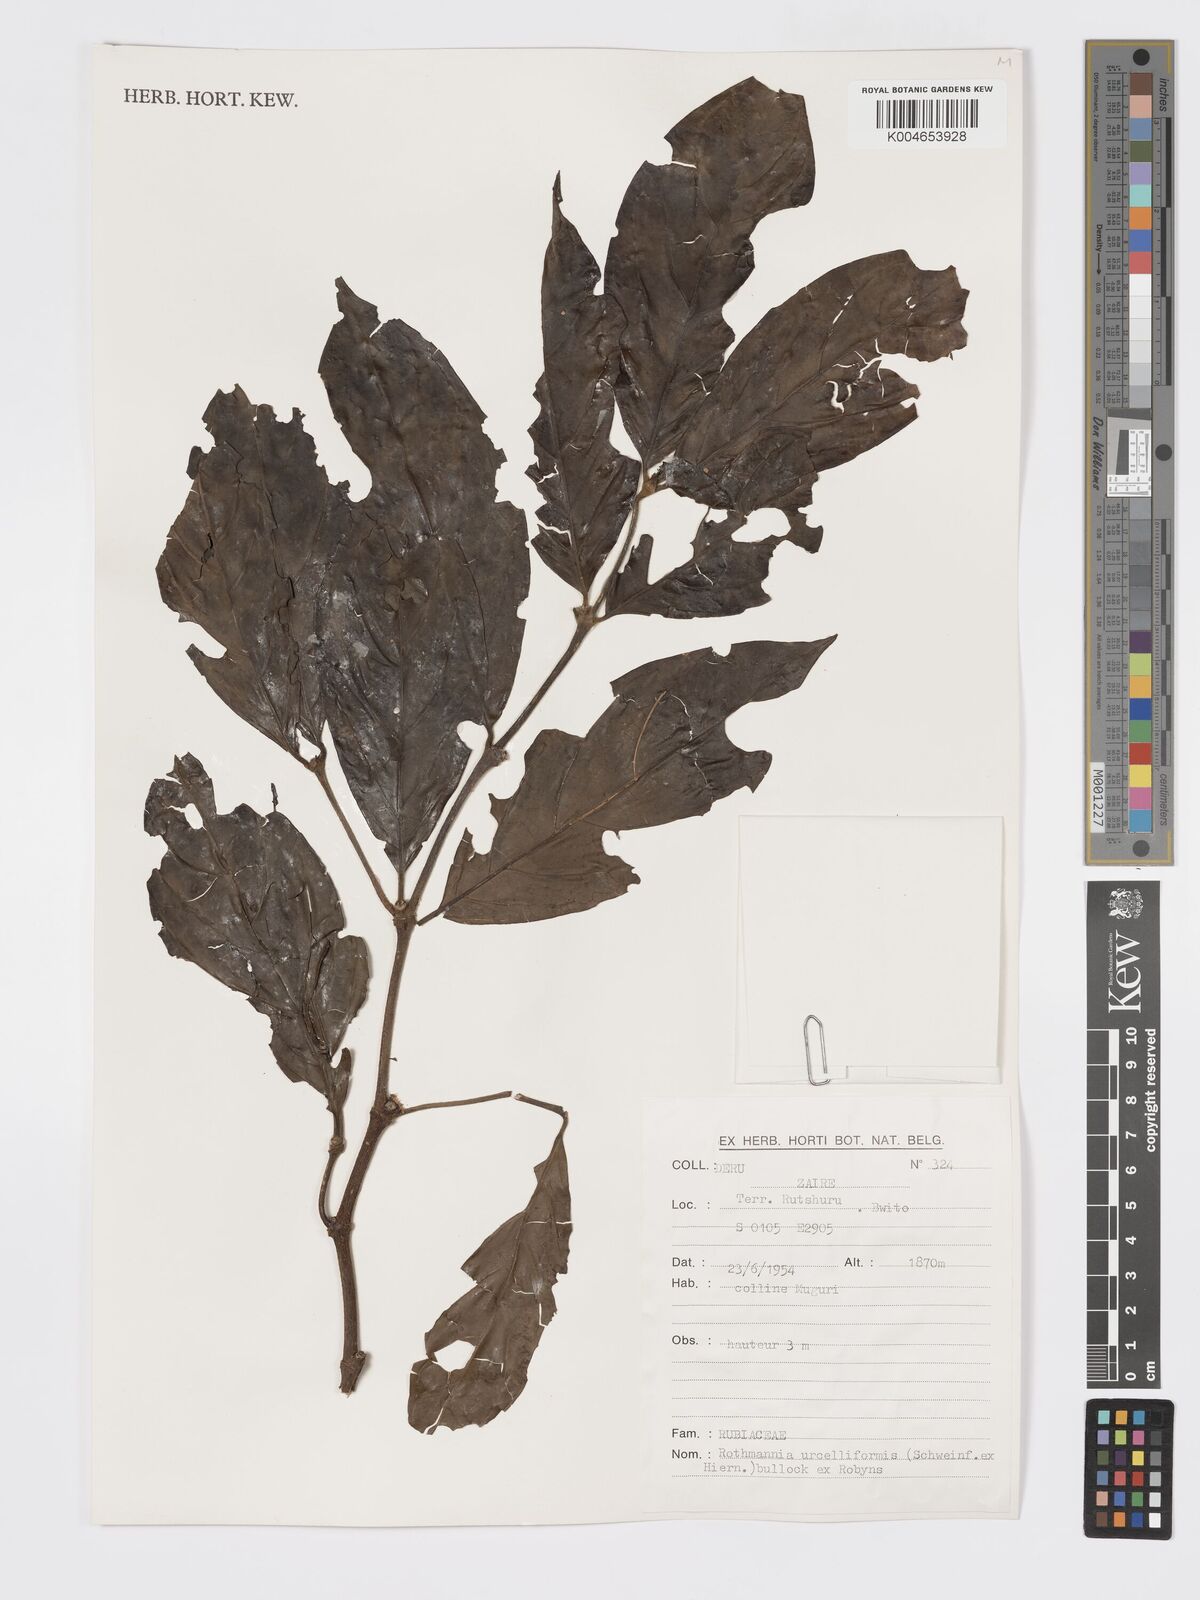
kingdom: Plantae
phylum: Tracheophyta
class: Magnoliopsida
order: Gentianales
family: Rubiaceae
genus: Rothmannia
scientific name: Rothmannia urcelliformis
